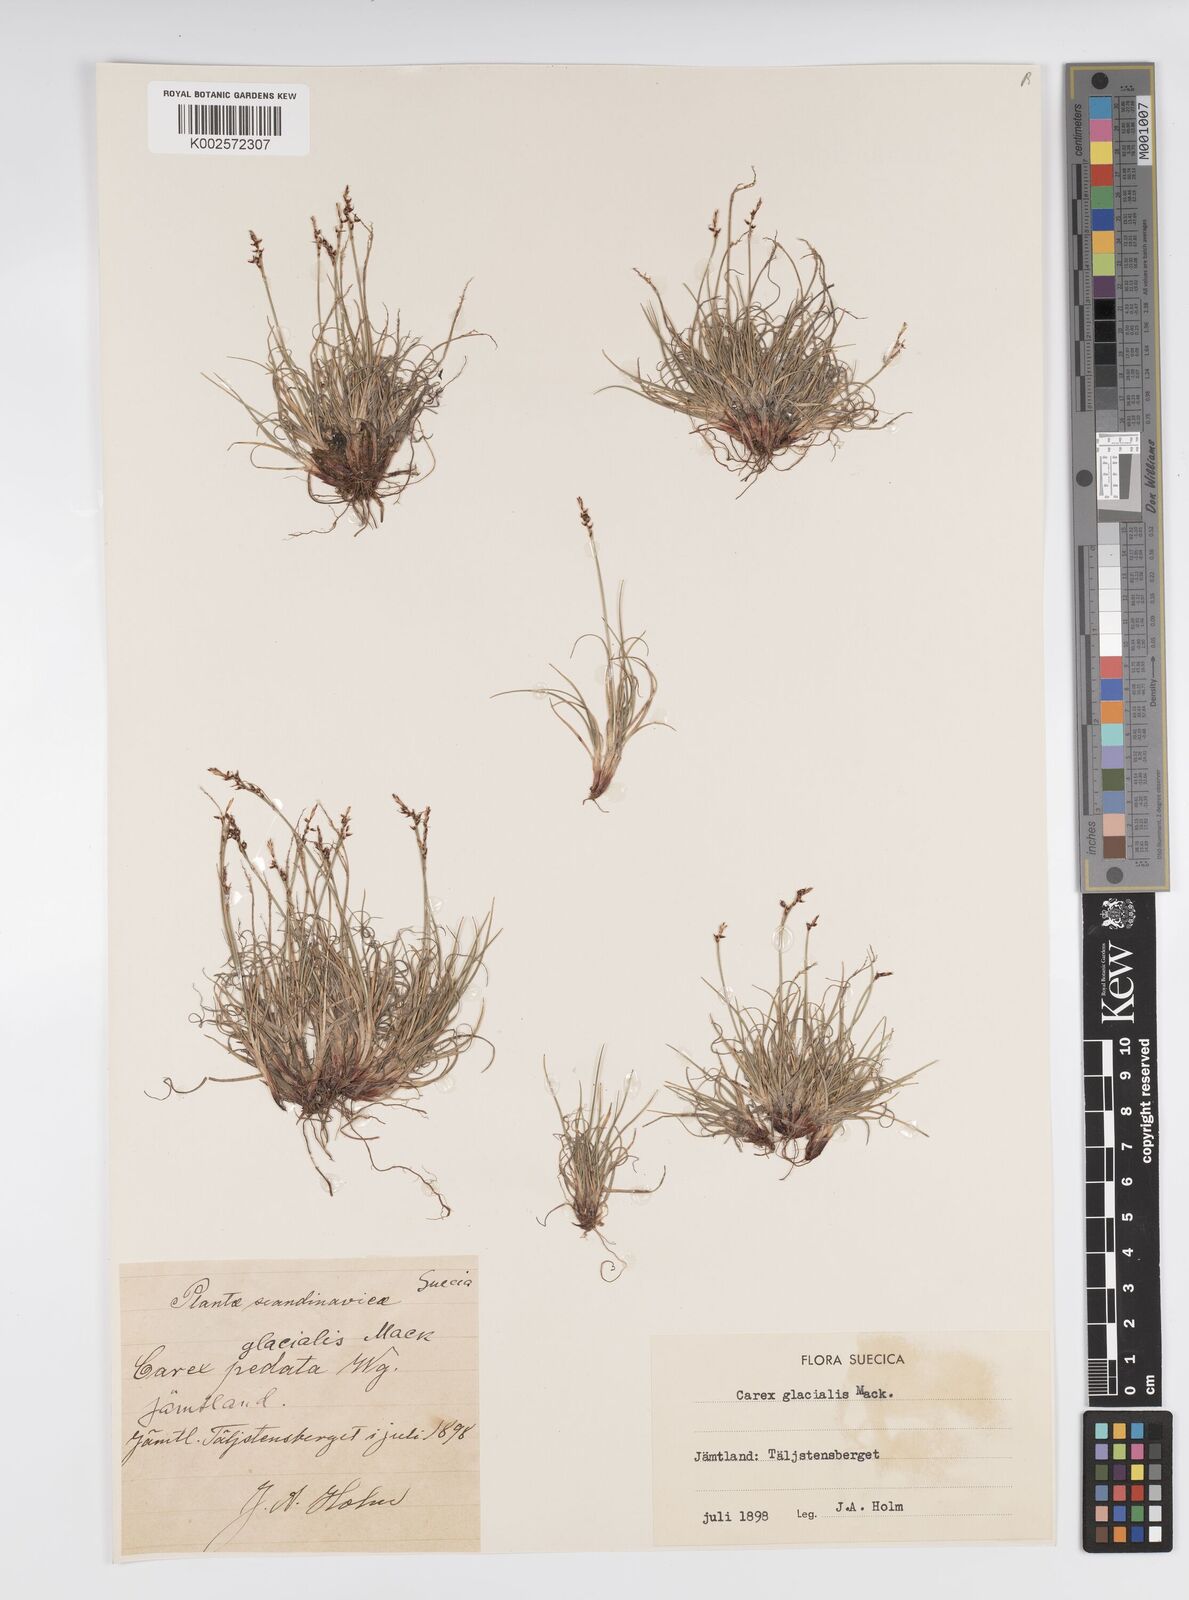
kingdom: Plantae
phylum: Tracheophyta
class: Liliopsida
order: Poales
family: Cyperaceae
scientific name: Cyperaceae
